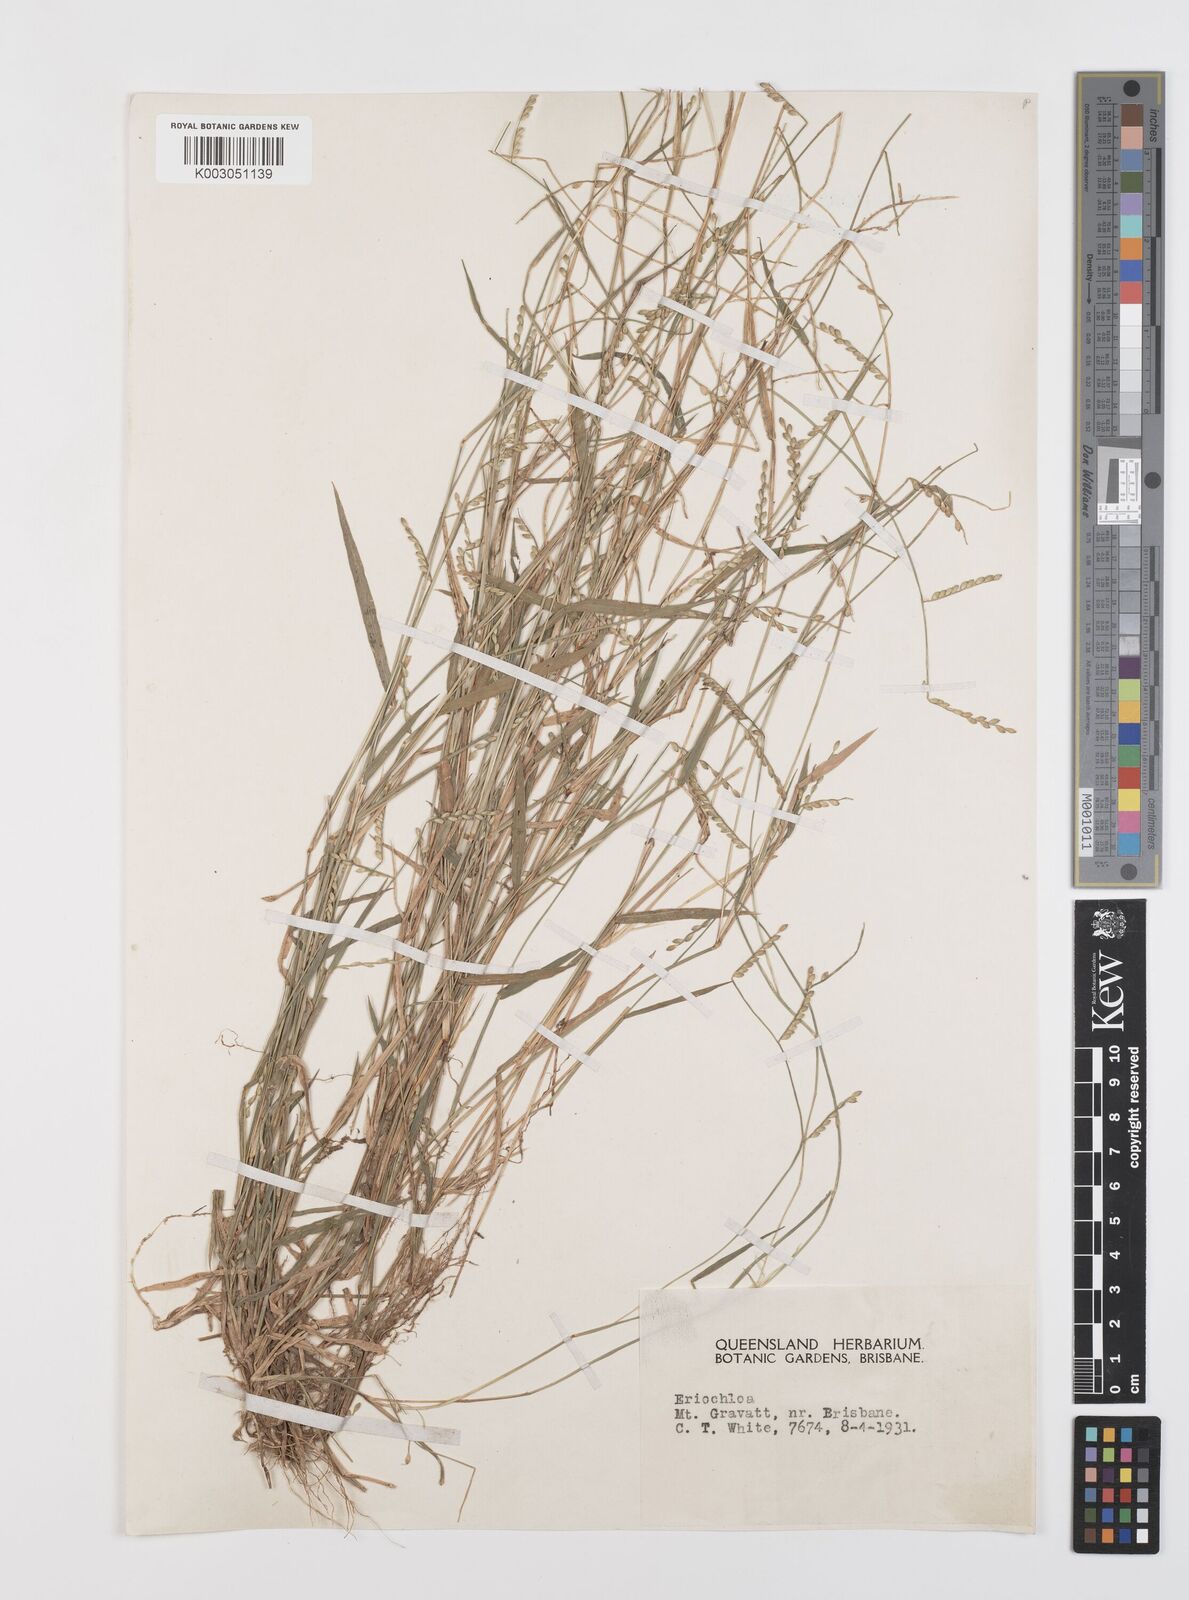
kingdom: Plantae
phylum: Tracheophyta
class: Liliopsida
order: Poales
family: Poaceae
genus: Urochloa
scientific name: Urochloa whiteana
